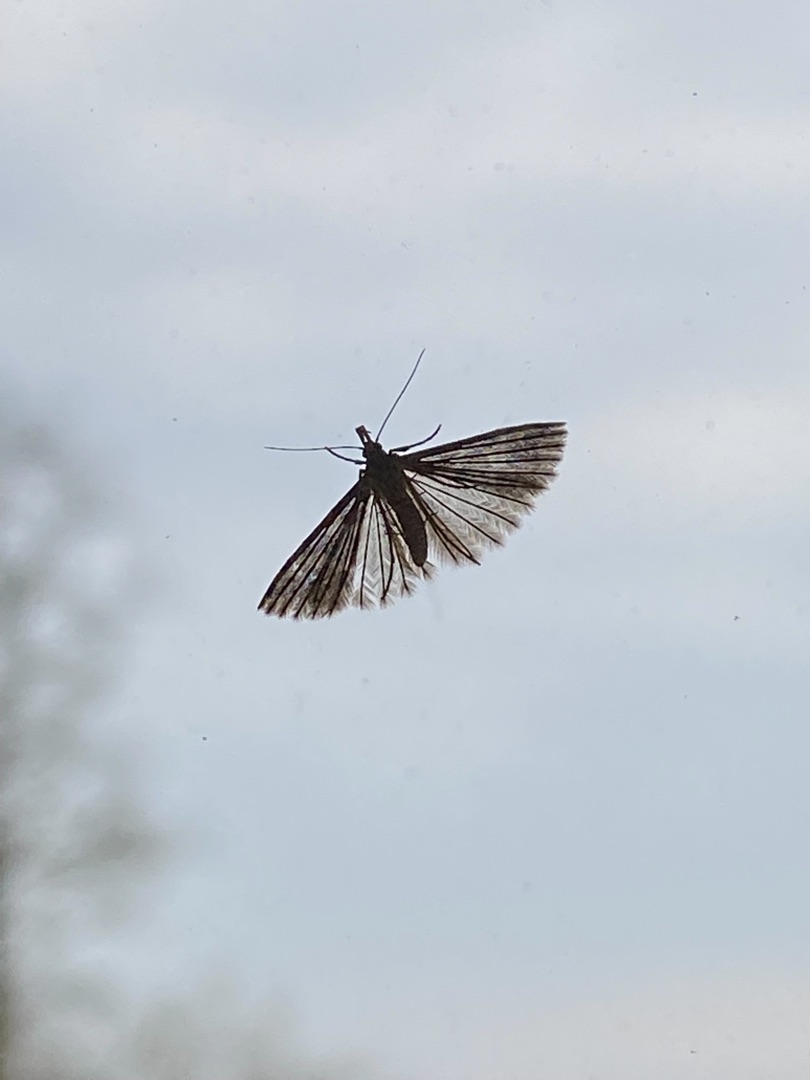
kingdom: Animalia
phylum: Arthropoda
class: Insecta
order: Lepidoptera
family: Alucitidae
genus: Alucita
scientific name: Alucita hexadactyla
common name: Kaprifoliefjermøl
